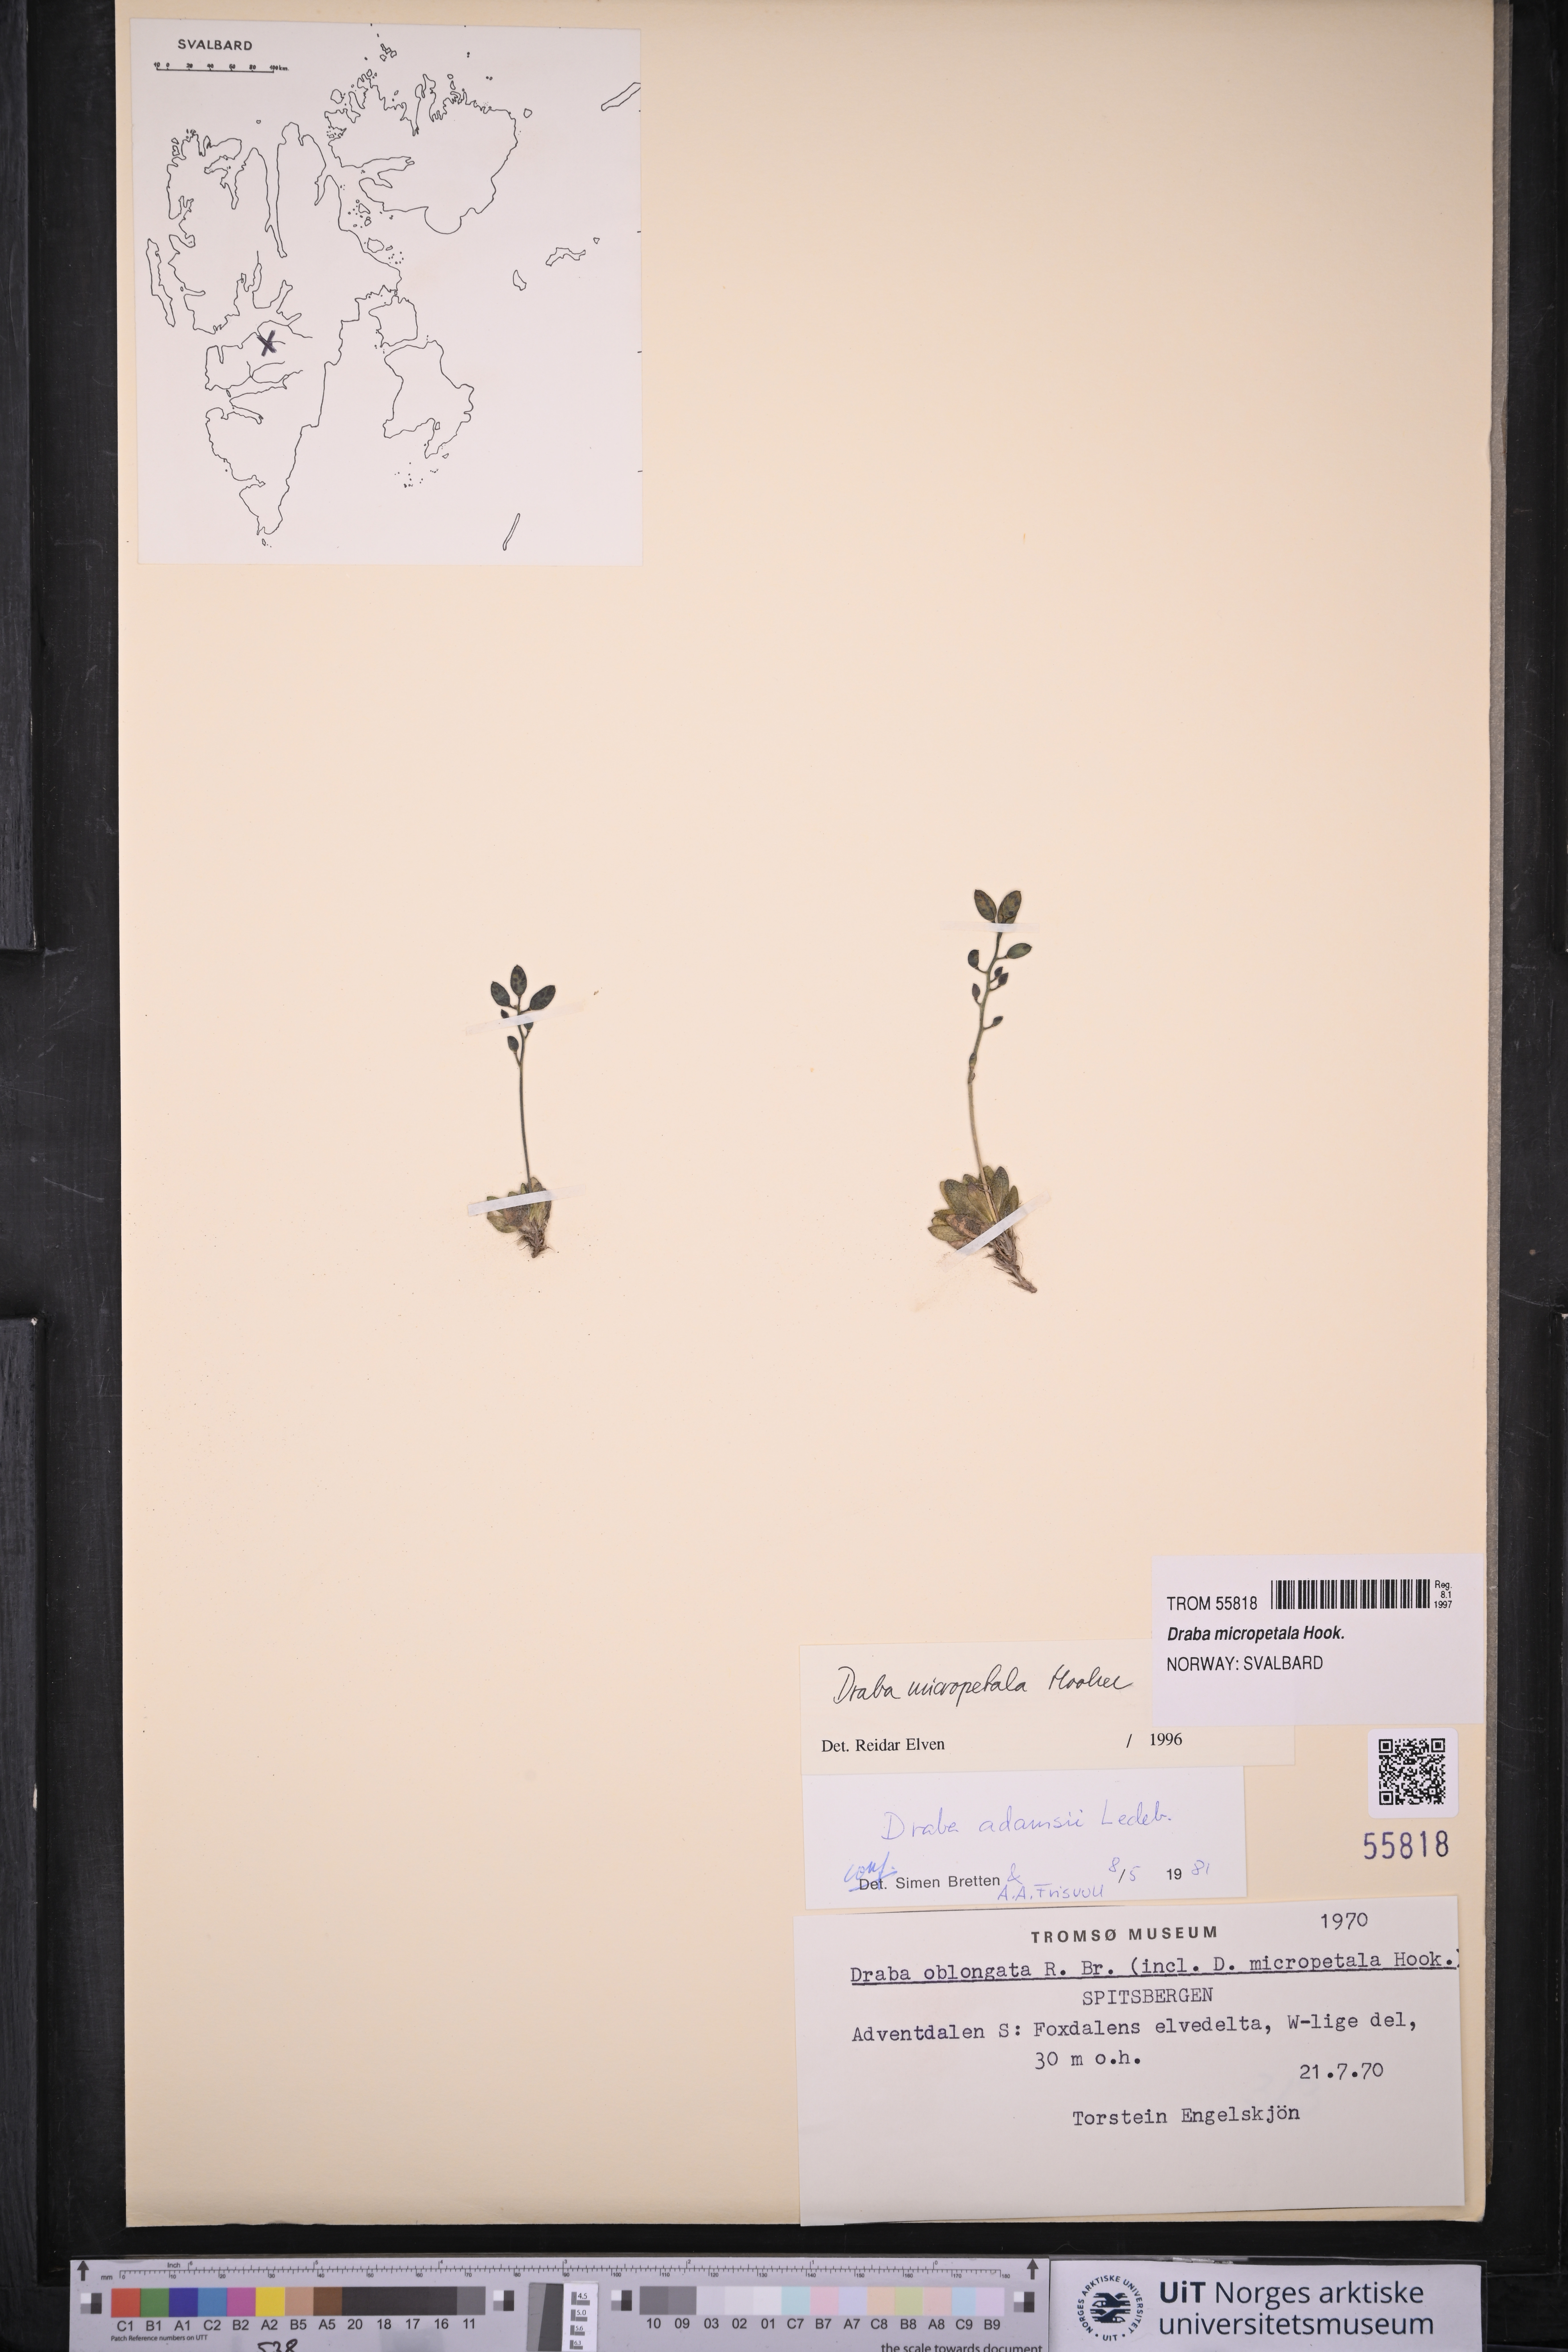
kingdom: Plantae
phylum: Tracheophyta
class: Magnoliopsida
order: Brassicales
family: Brassicaceae
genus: Draba
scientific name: Draba micropetala
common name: Small-flowered draba
